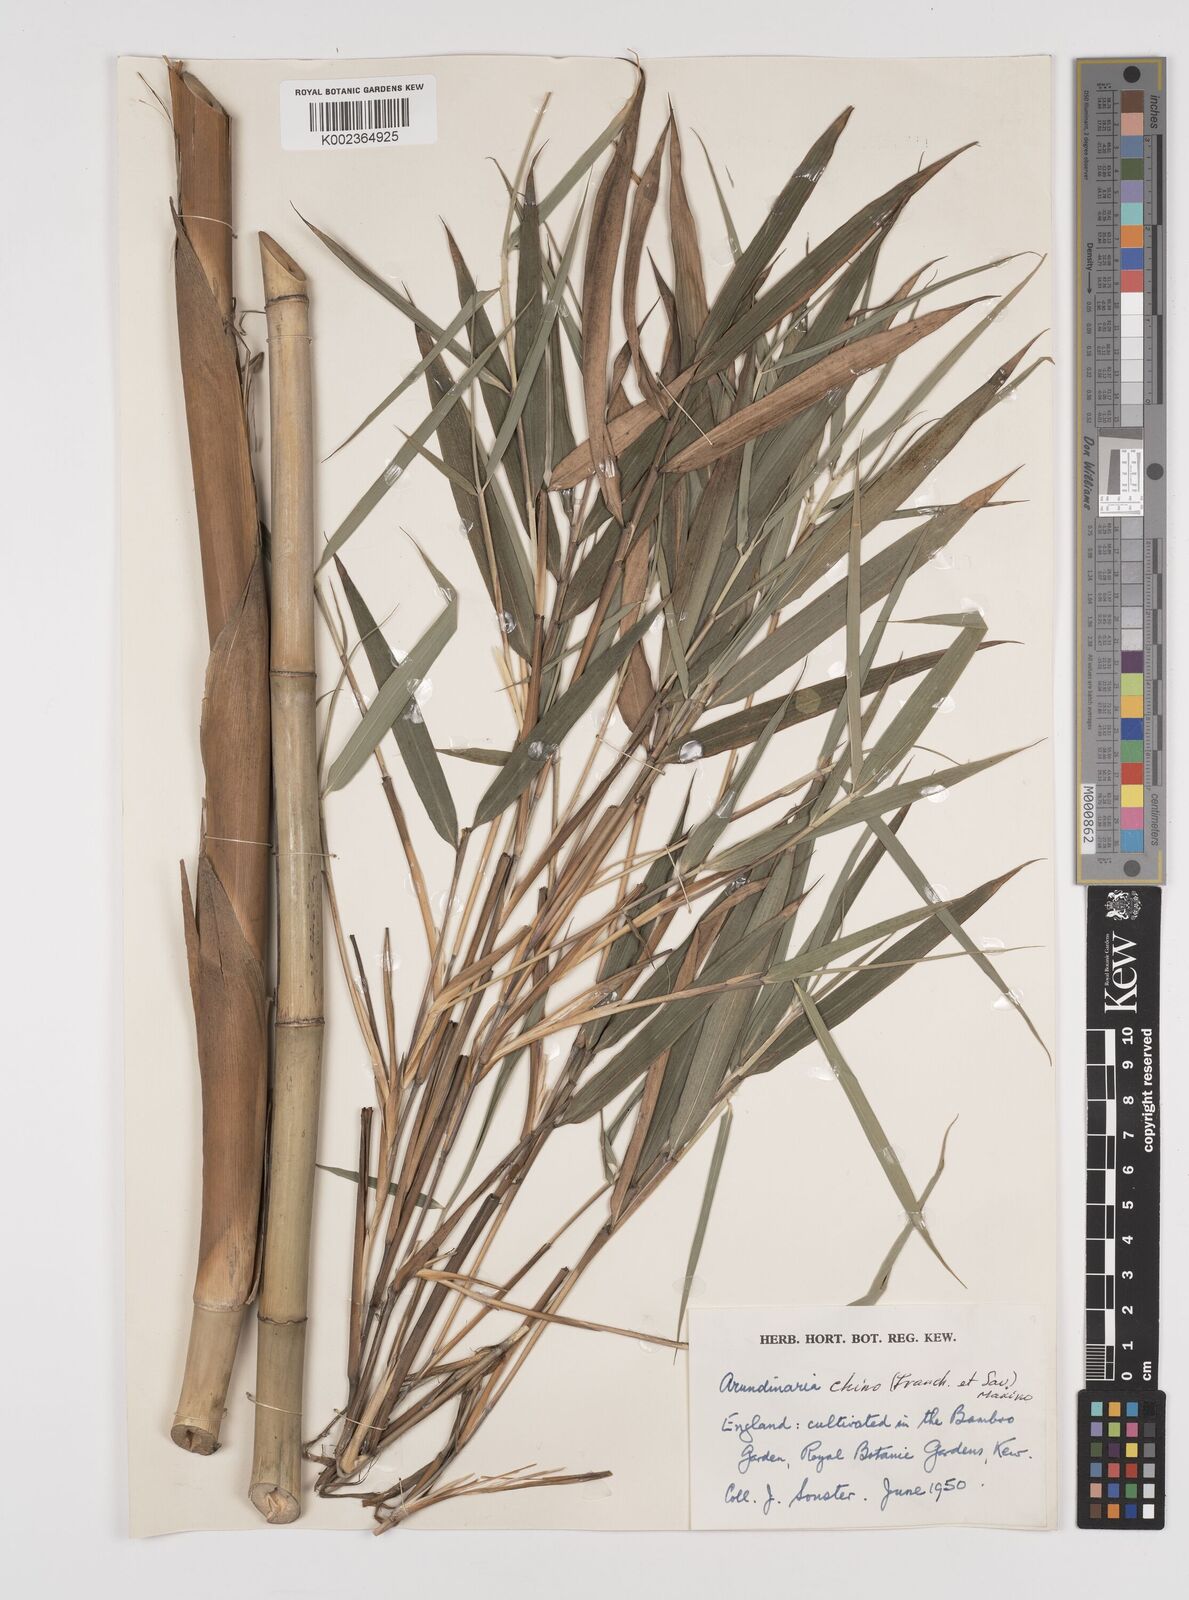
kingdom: Plantae
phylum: Tracheophyta
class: Liliopsida
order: Poales
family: Poaceae
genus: Pleioblastus
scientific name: Pleioblastus argenteostriatus
